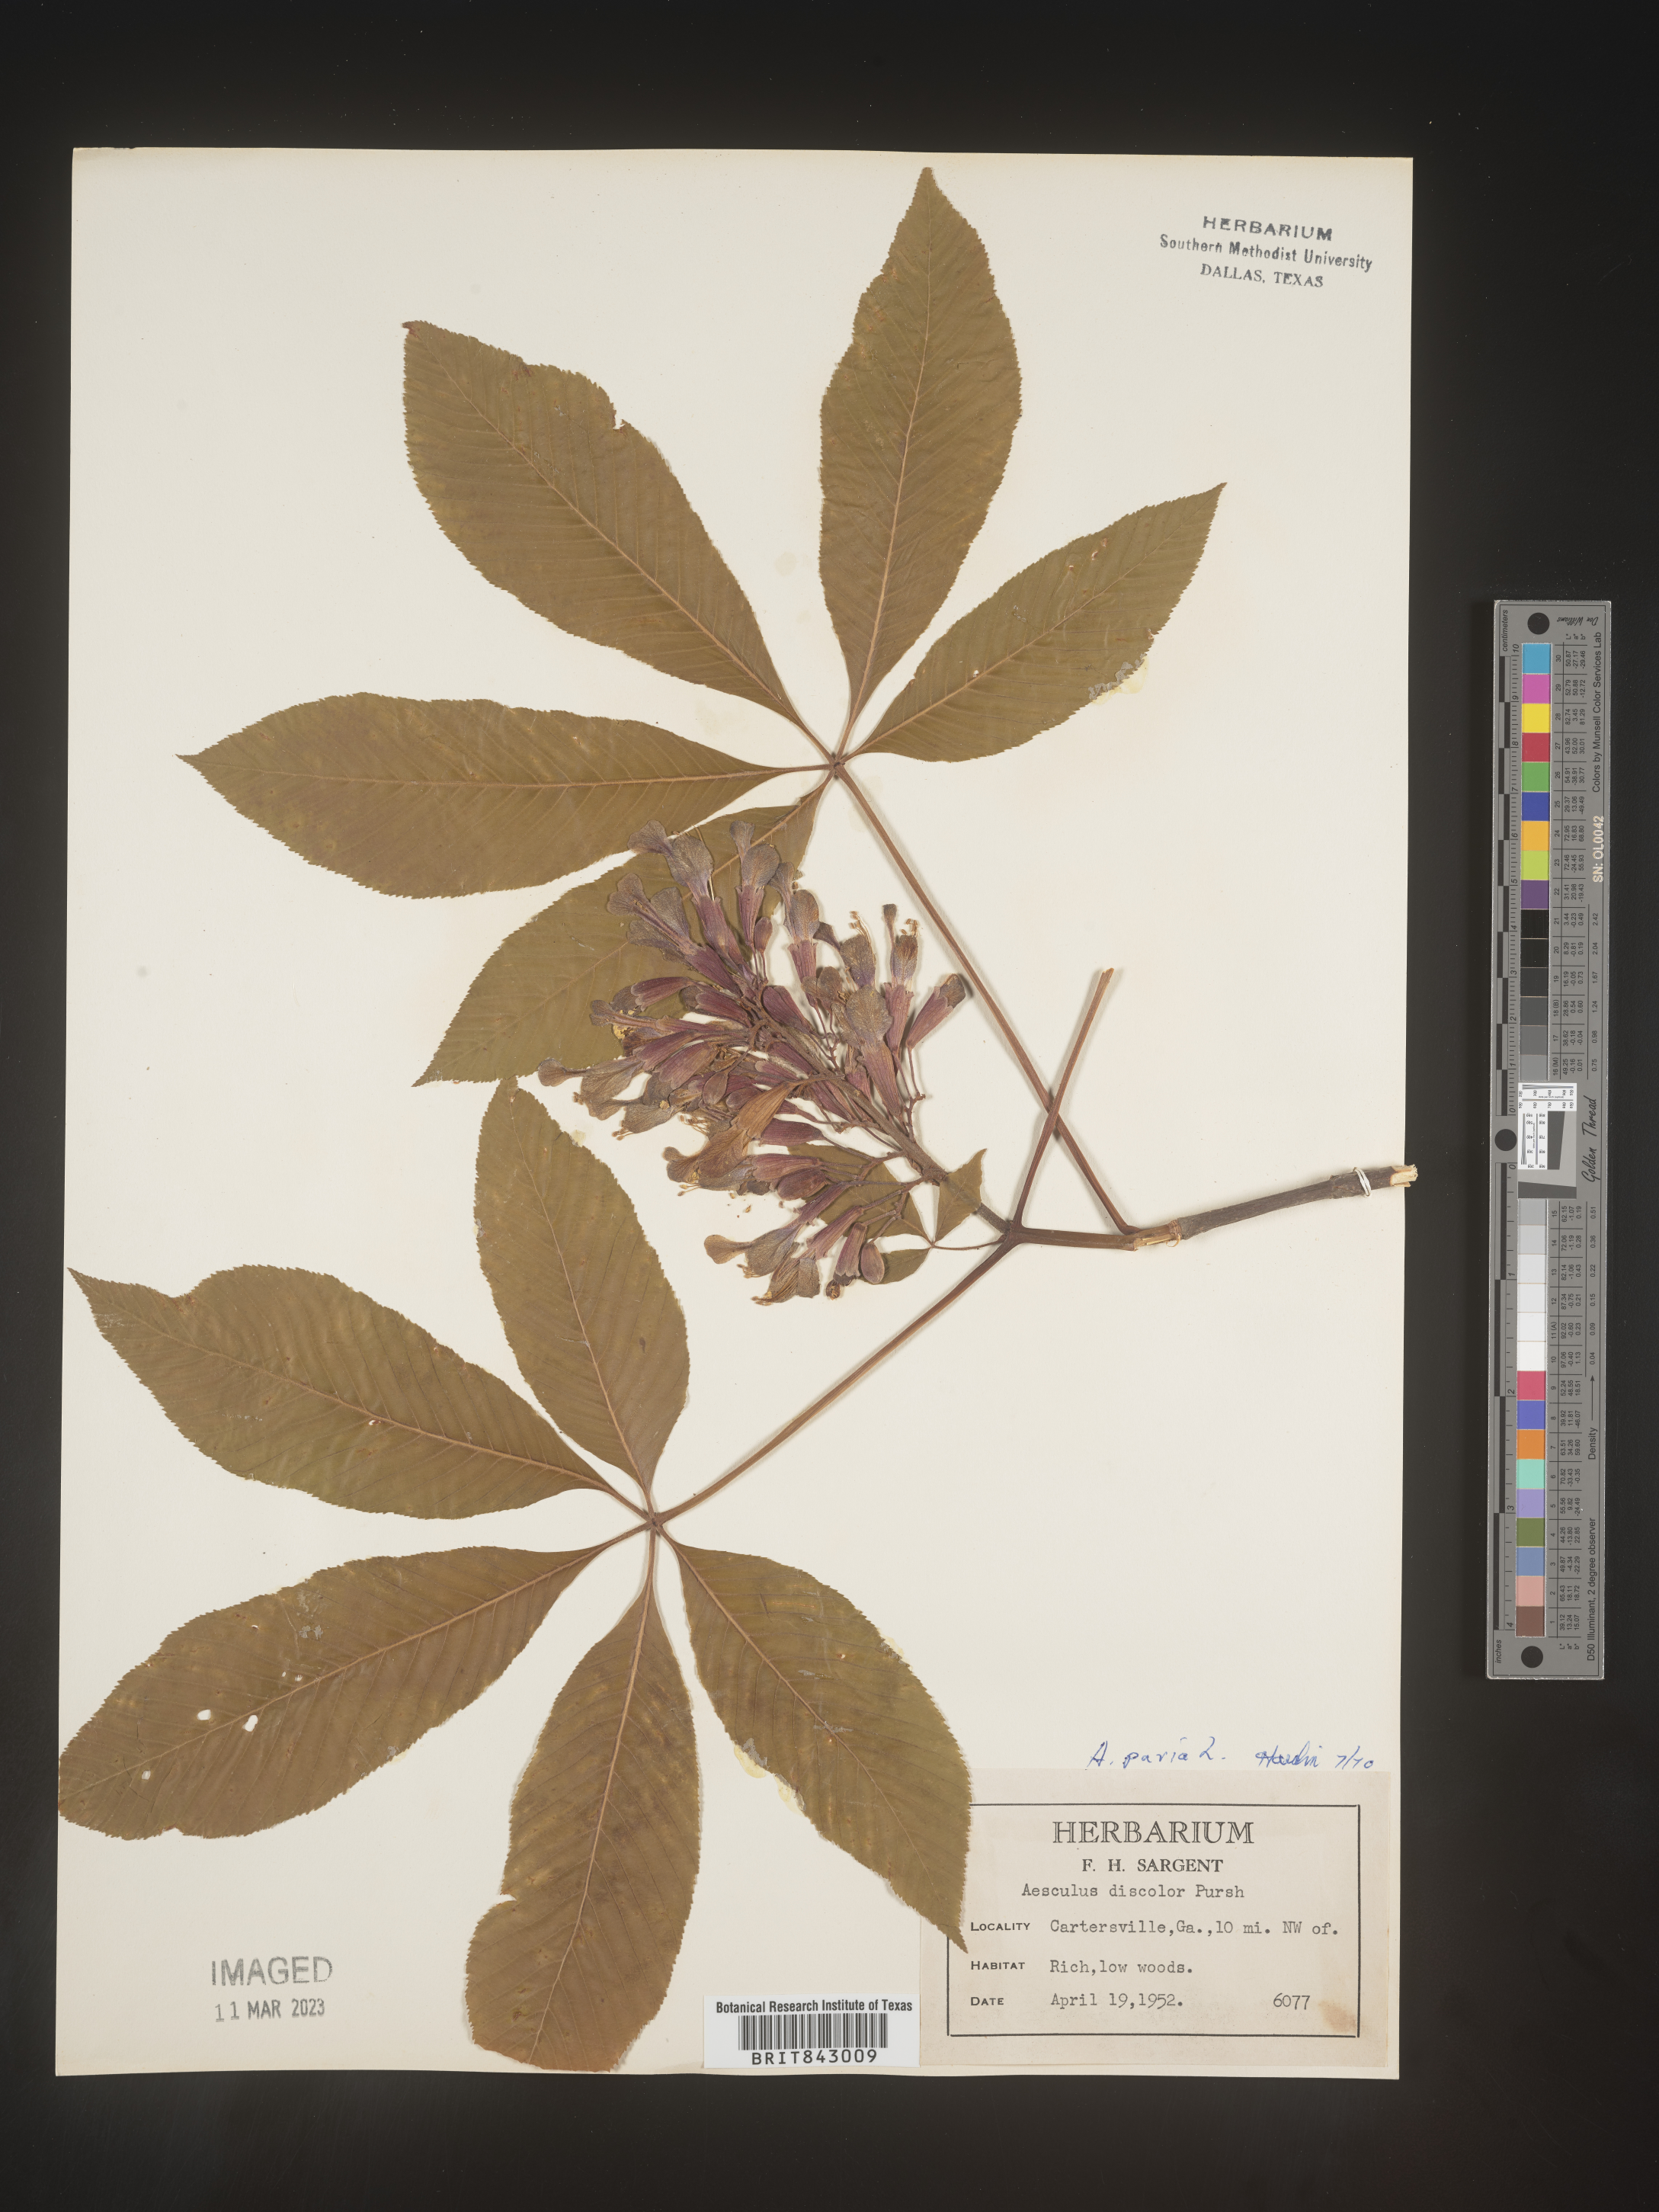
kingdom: Plantae
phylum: Tracheophyta
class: Magnoliopsida
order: Sapindales
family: Sapindaceae
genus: Aesculus
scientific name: Aesculus pavia
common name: Red buckeye
